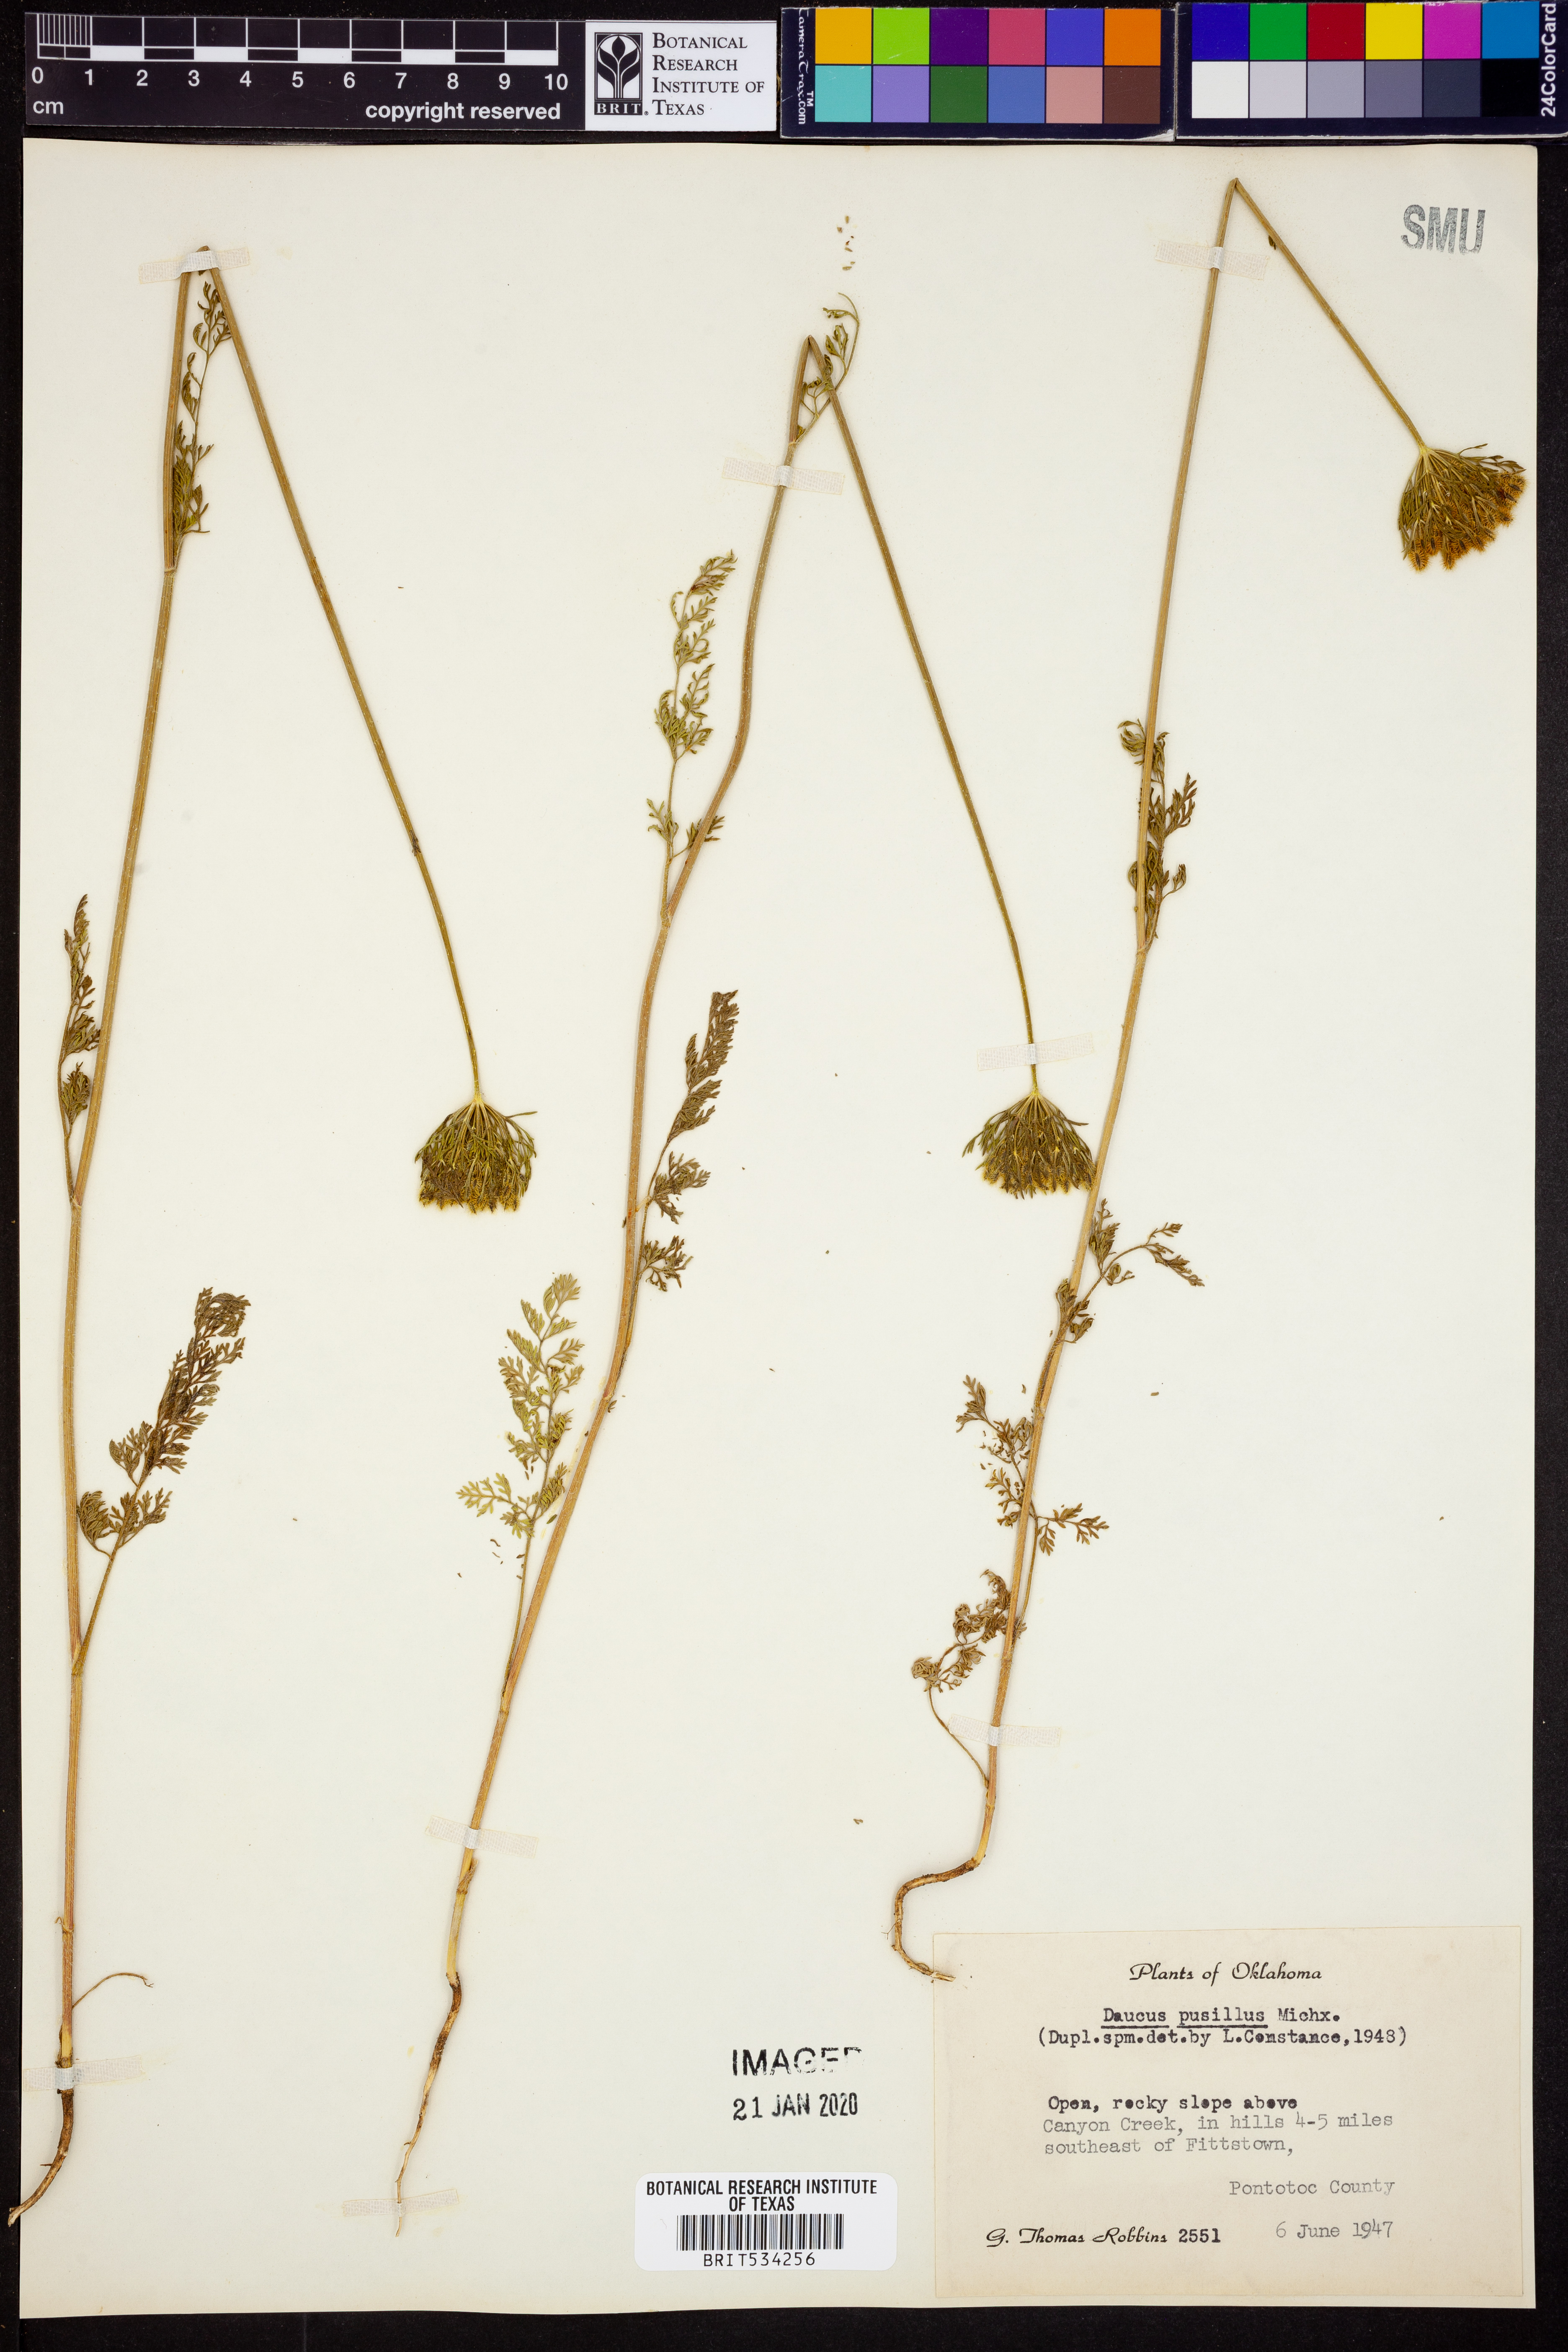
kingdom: Plantae
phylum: Tracheophyta
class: Magnoliopsida
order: Apiales
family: Apiaceae
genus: Daucus
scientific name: Daucus pusillus
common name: Southwest wild carrot
